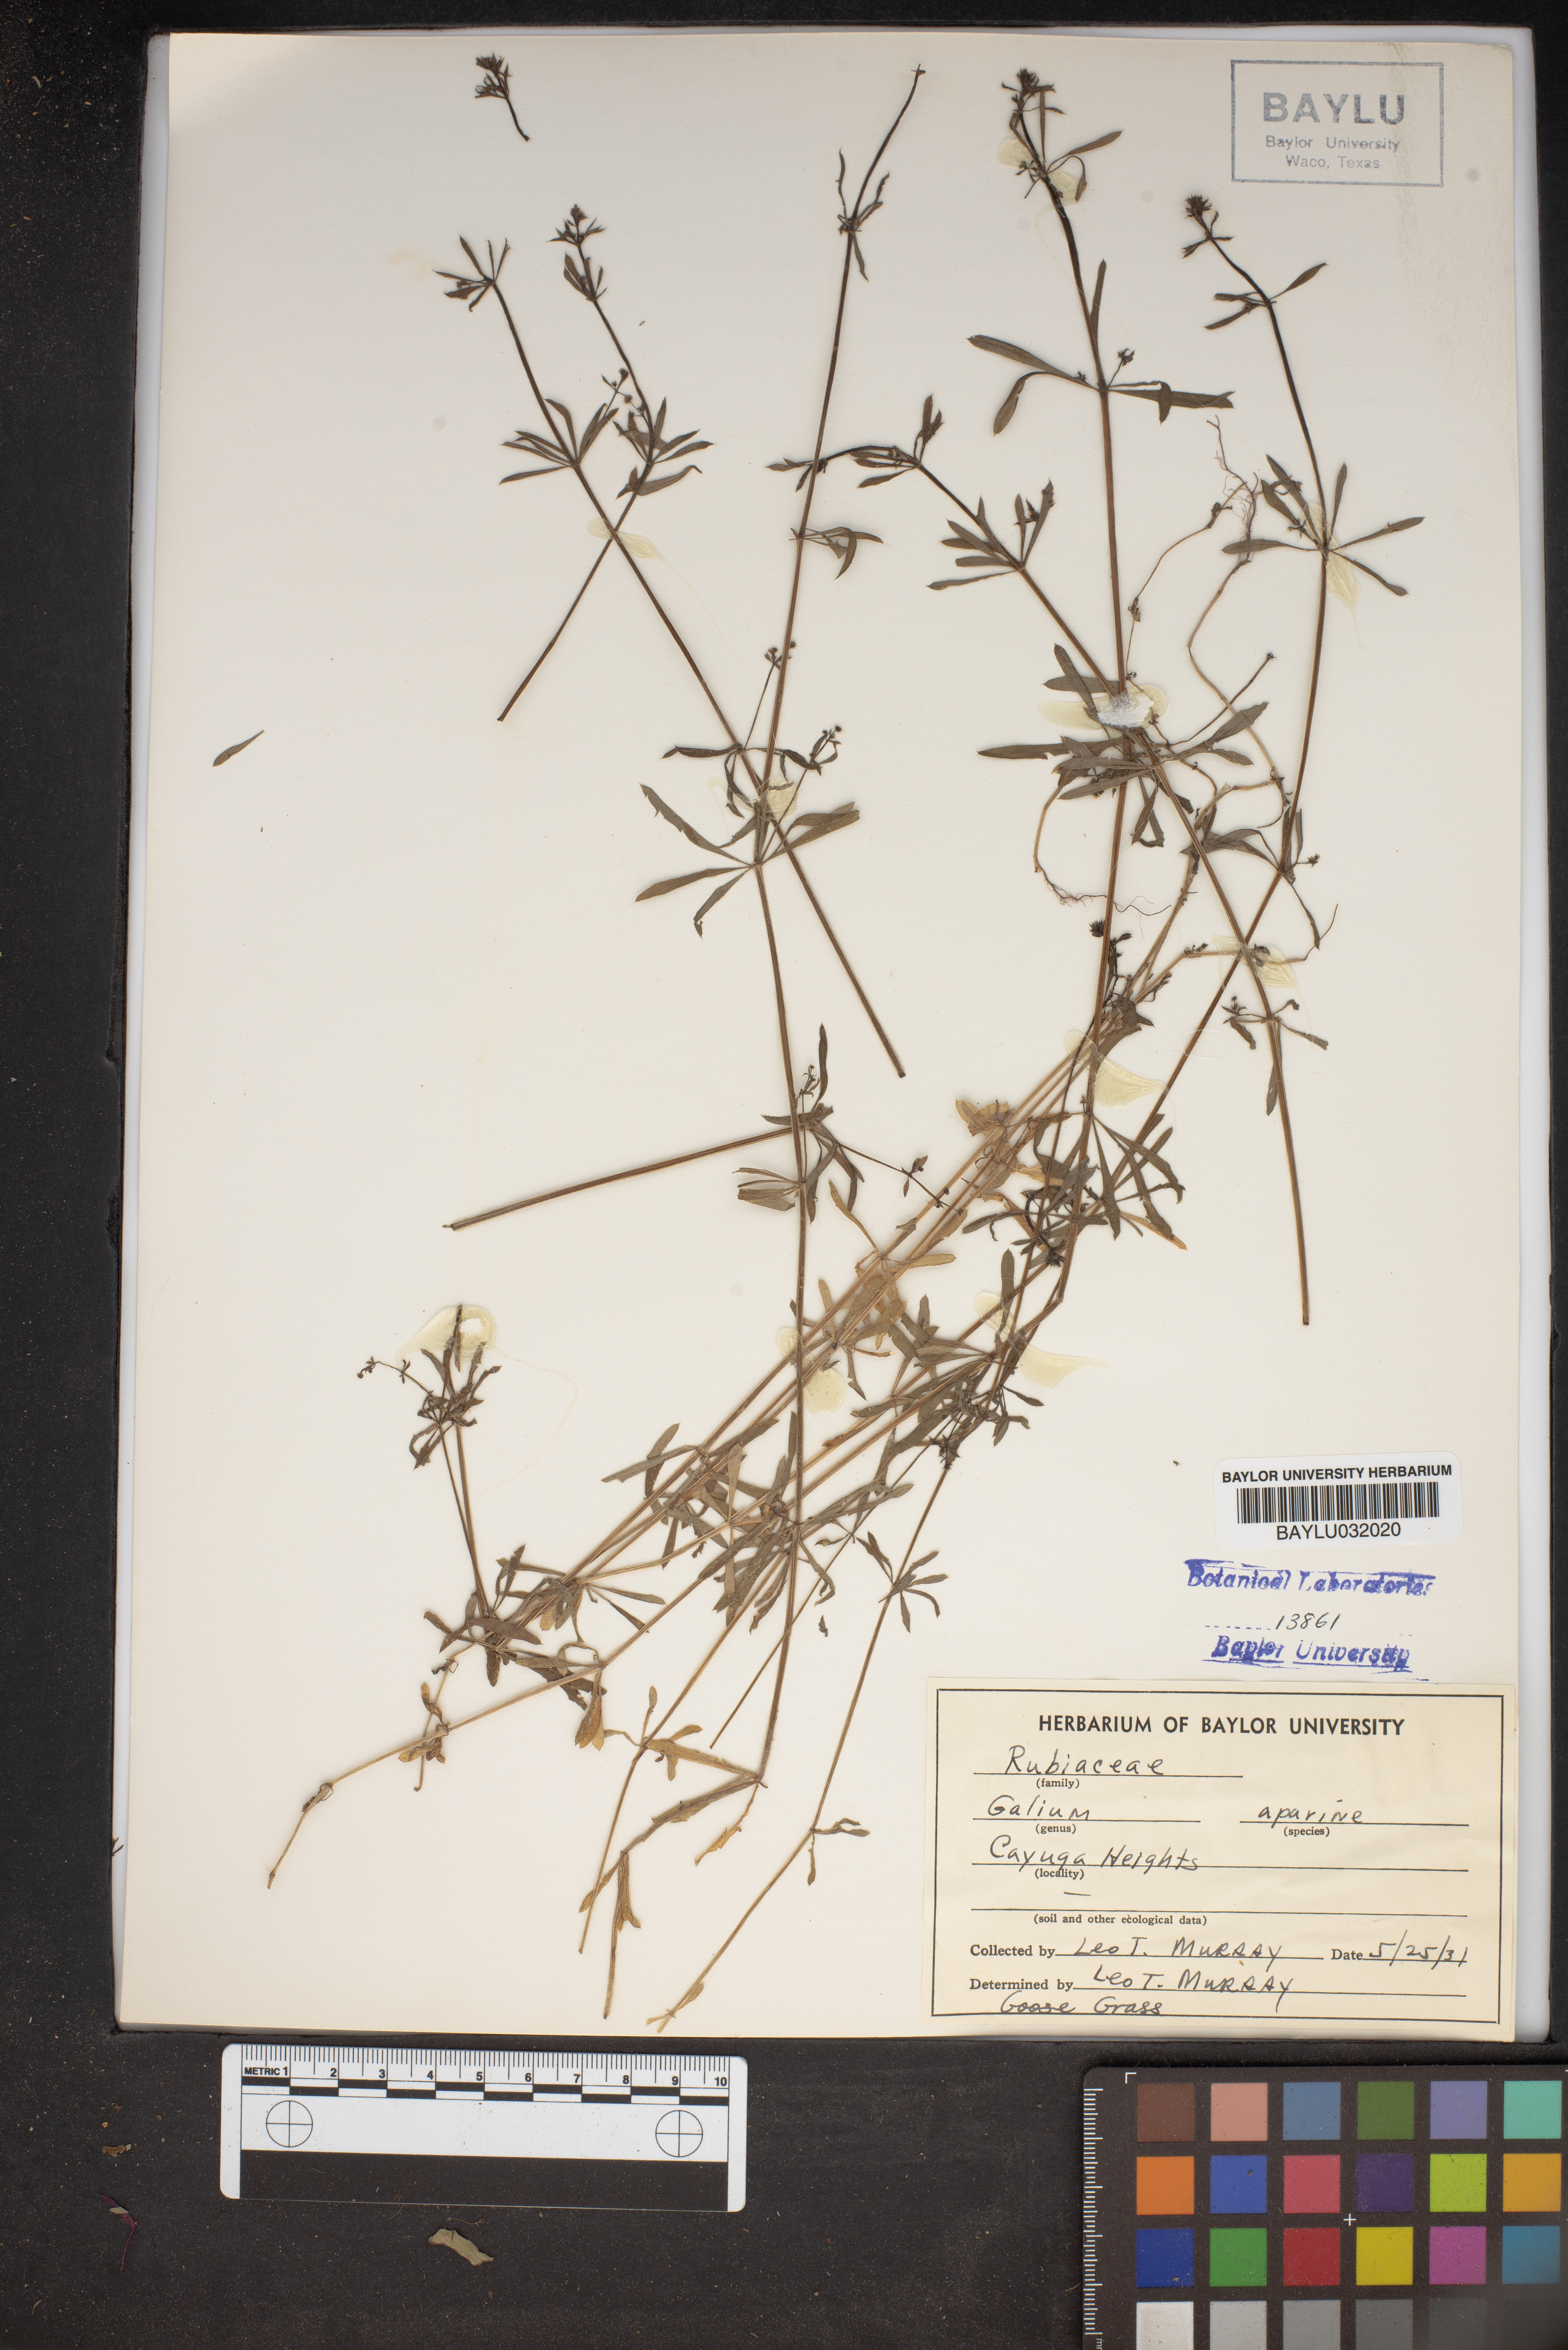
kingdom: Plantae
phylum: Tracheophyta
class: Magnoliopsida
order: Gentianales
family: Rubiaceae
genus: Galium
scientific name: Galium aparine
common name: Cleavers
